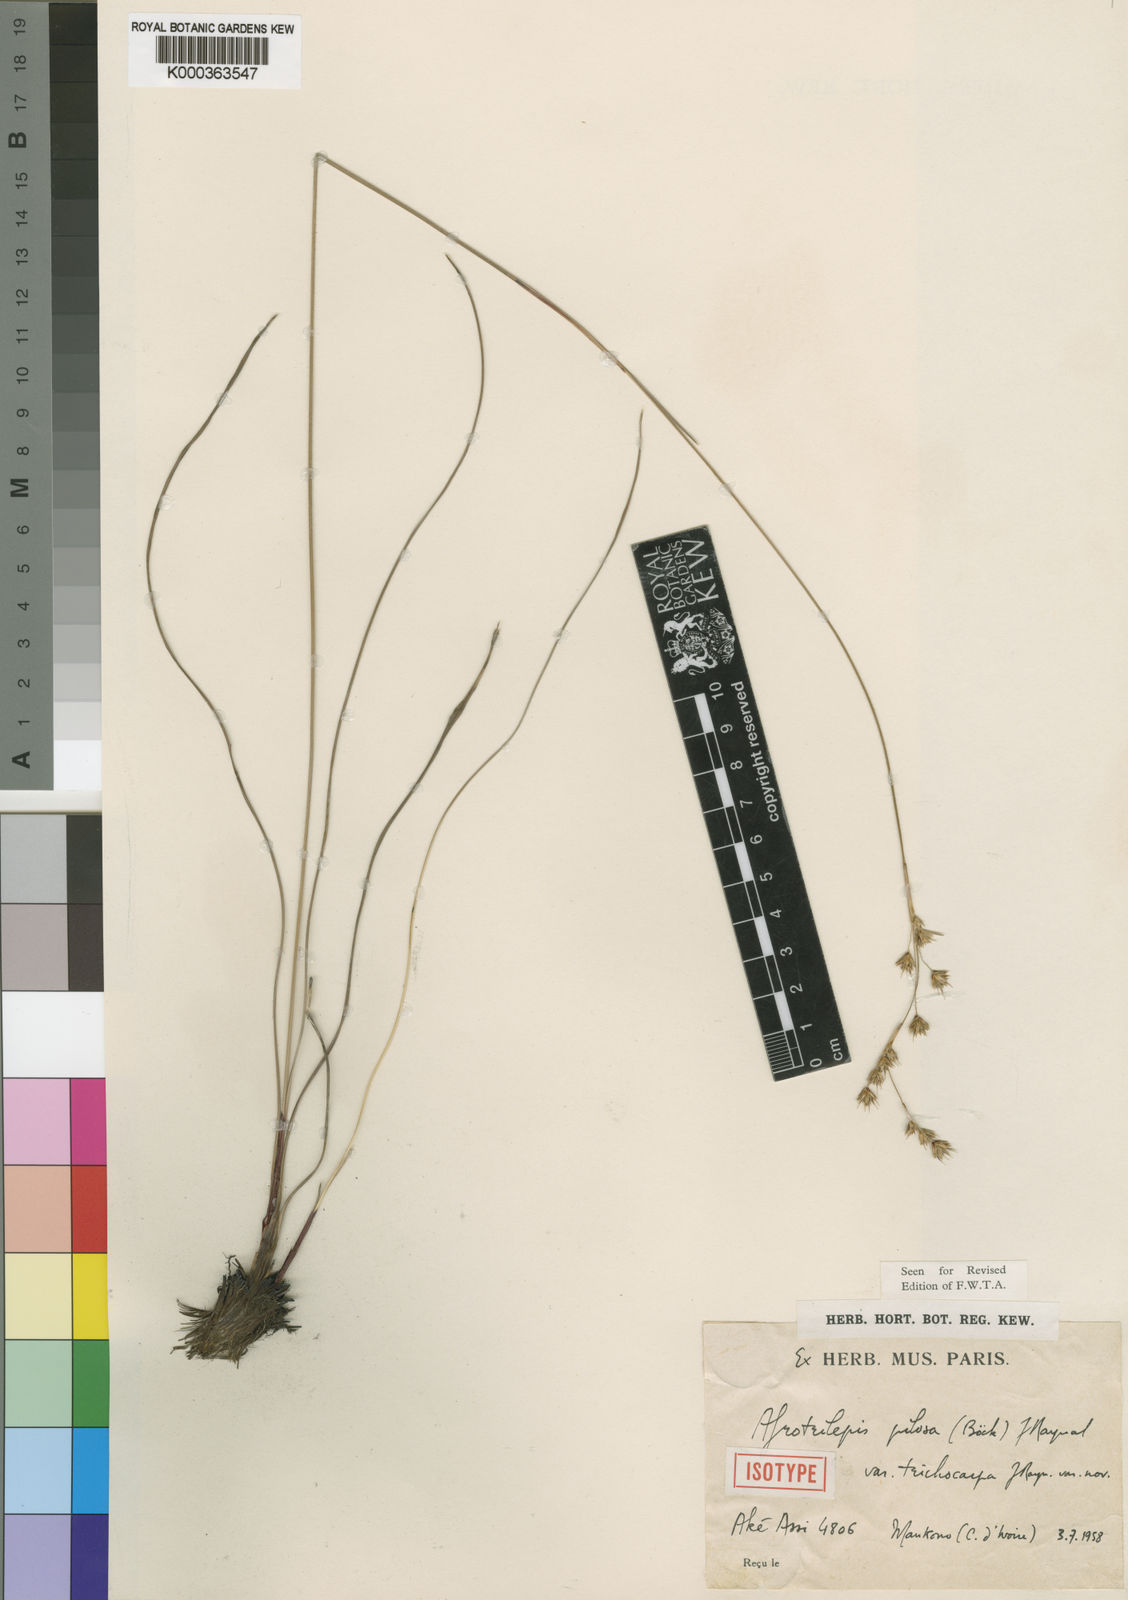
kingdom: Plantae
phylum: Tracheophyta
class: Liliopsida
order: Poales
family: Cyperaceae
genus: Afrotrilepis
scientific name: Afrotrilepis pilosa
